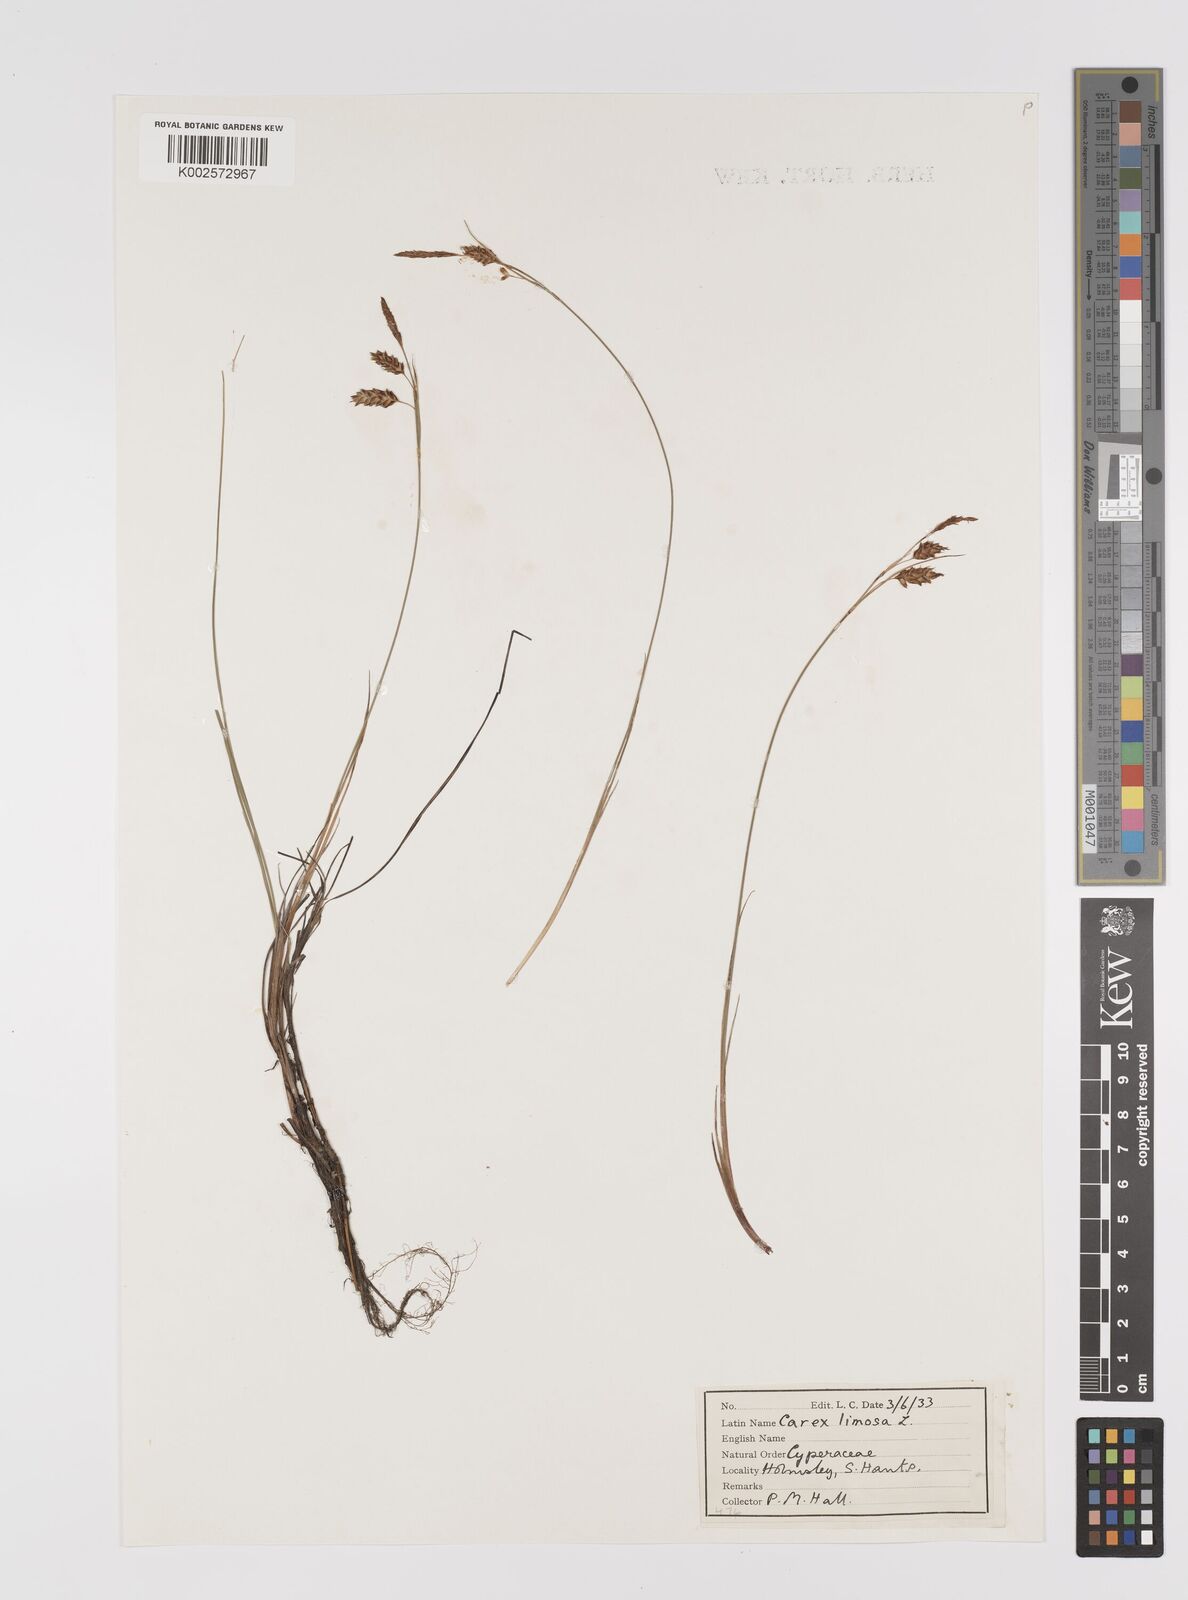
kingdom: Plantae
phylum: Tracheophyta
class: Liliopsida
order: Poales
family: Cyperaceae
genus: Carex
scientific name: Carex limosa
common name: Bog sedge
